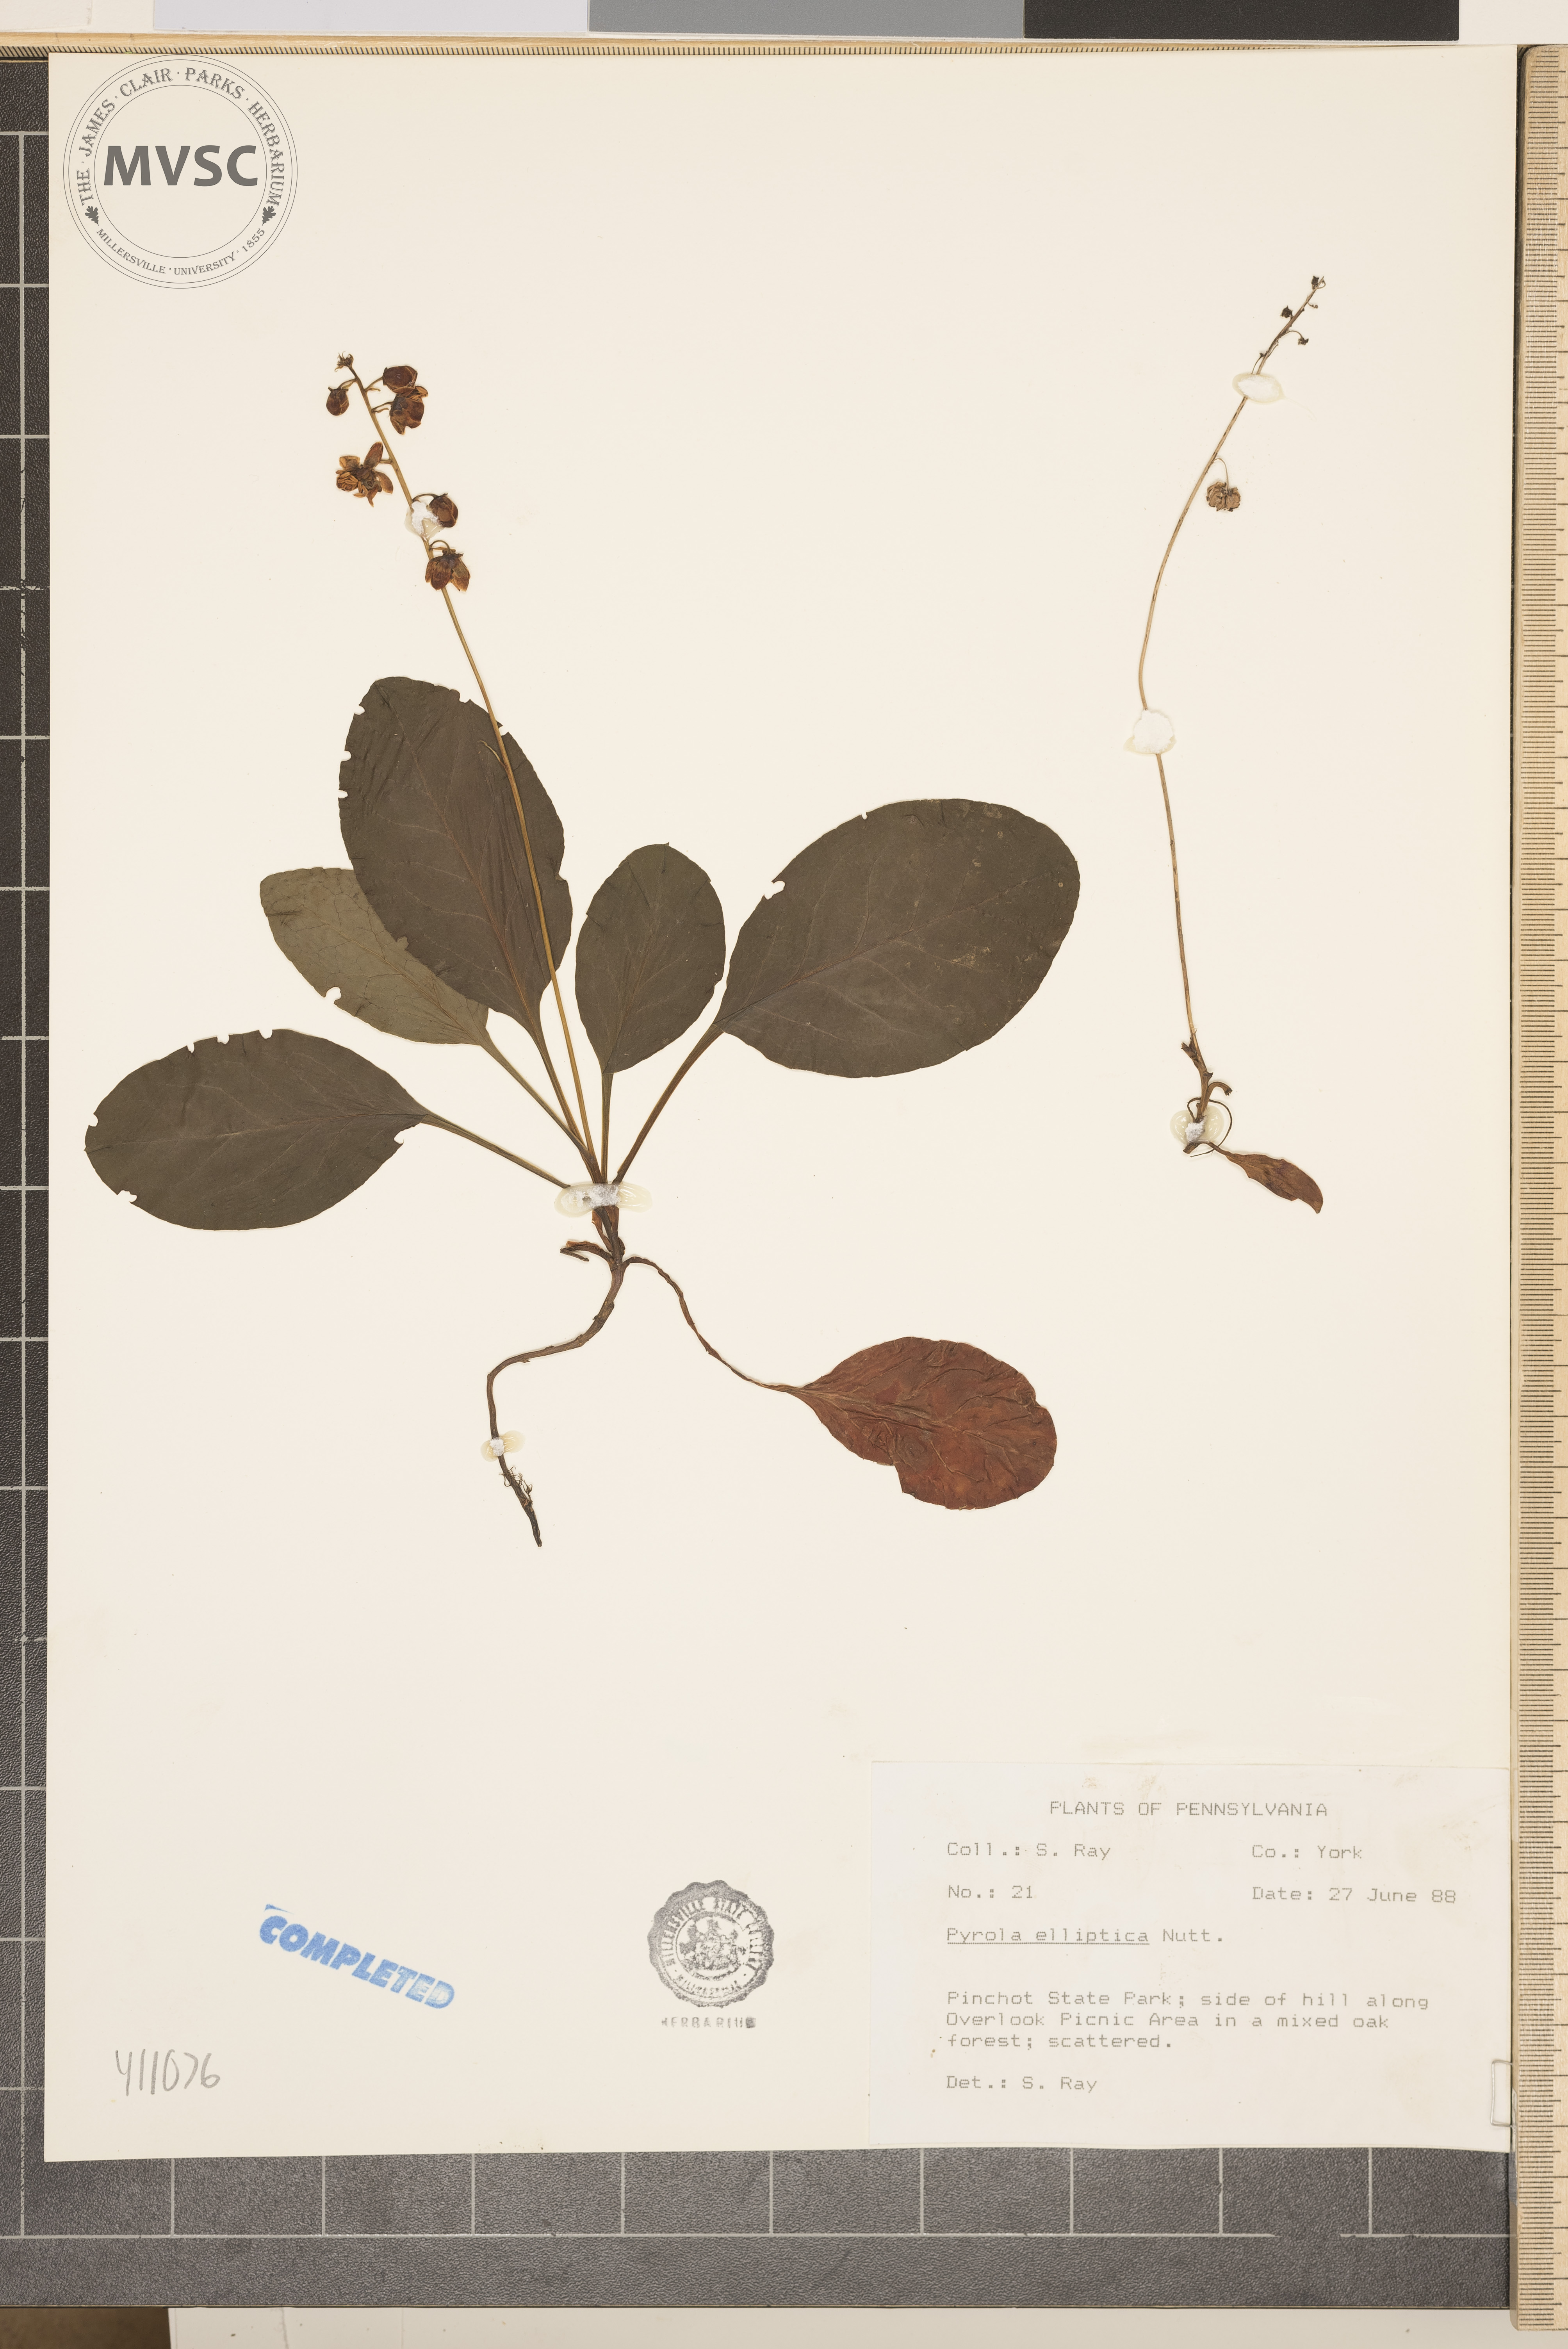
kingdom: Plantae
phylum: Tracheophyta
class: Magnoliopsida
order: Ericales
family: Ericaceae
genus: Pyrola
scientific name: Pyrola elliptica
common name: Shinleaf
